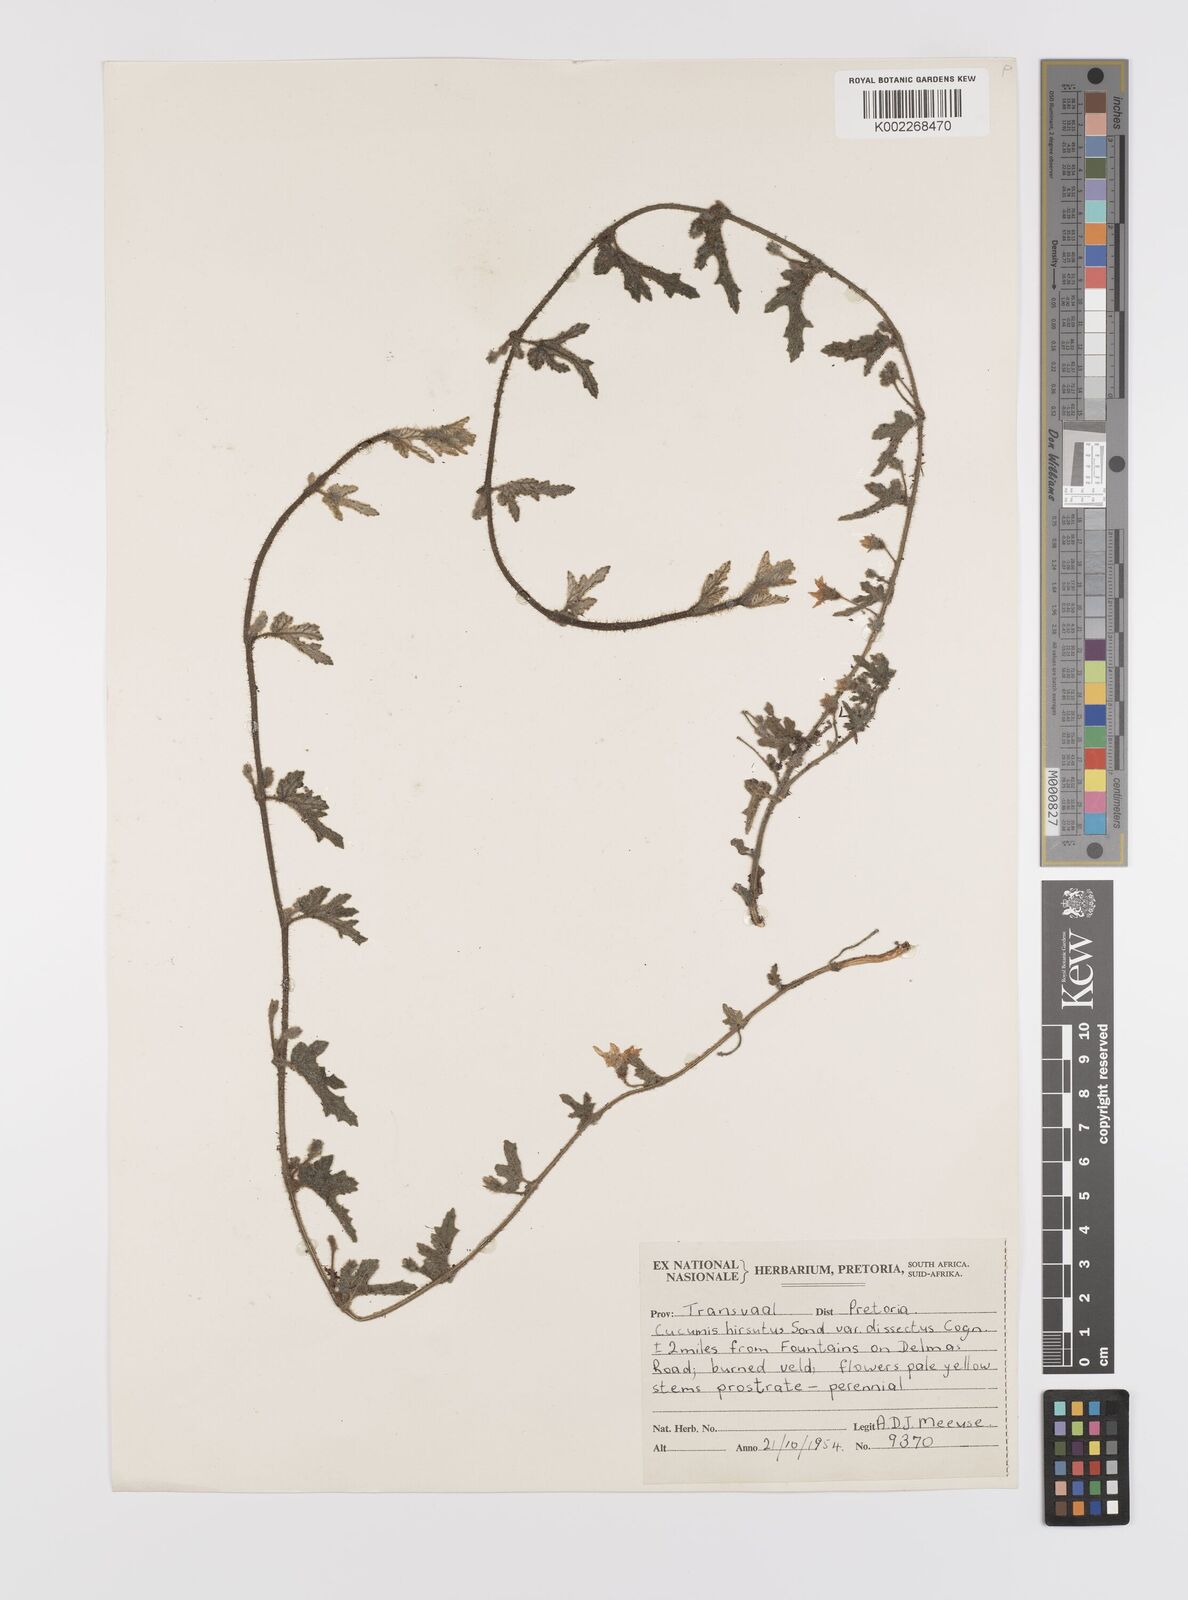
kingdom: Plantae
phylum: Tracheophyta
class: Magnoliopsida
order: Cucurbitales
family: Cucurbitaceae
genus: Cucumis
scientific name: Cucumis hirsutus
